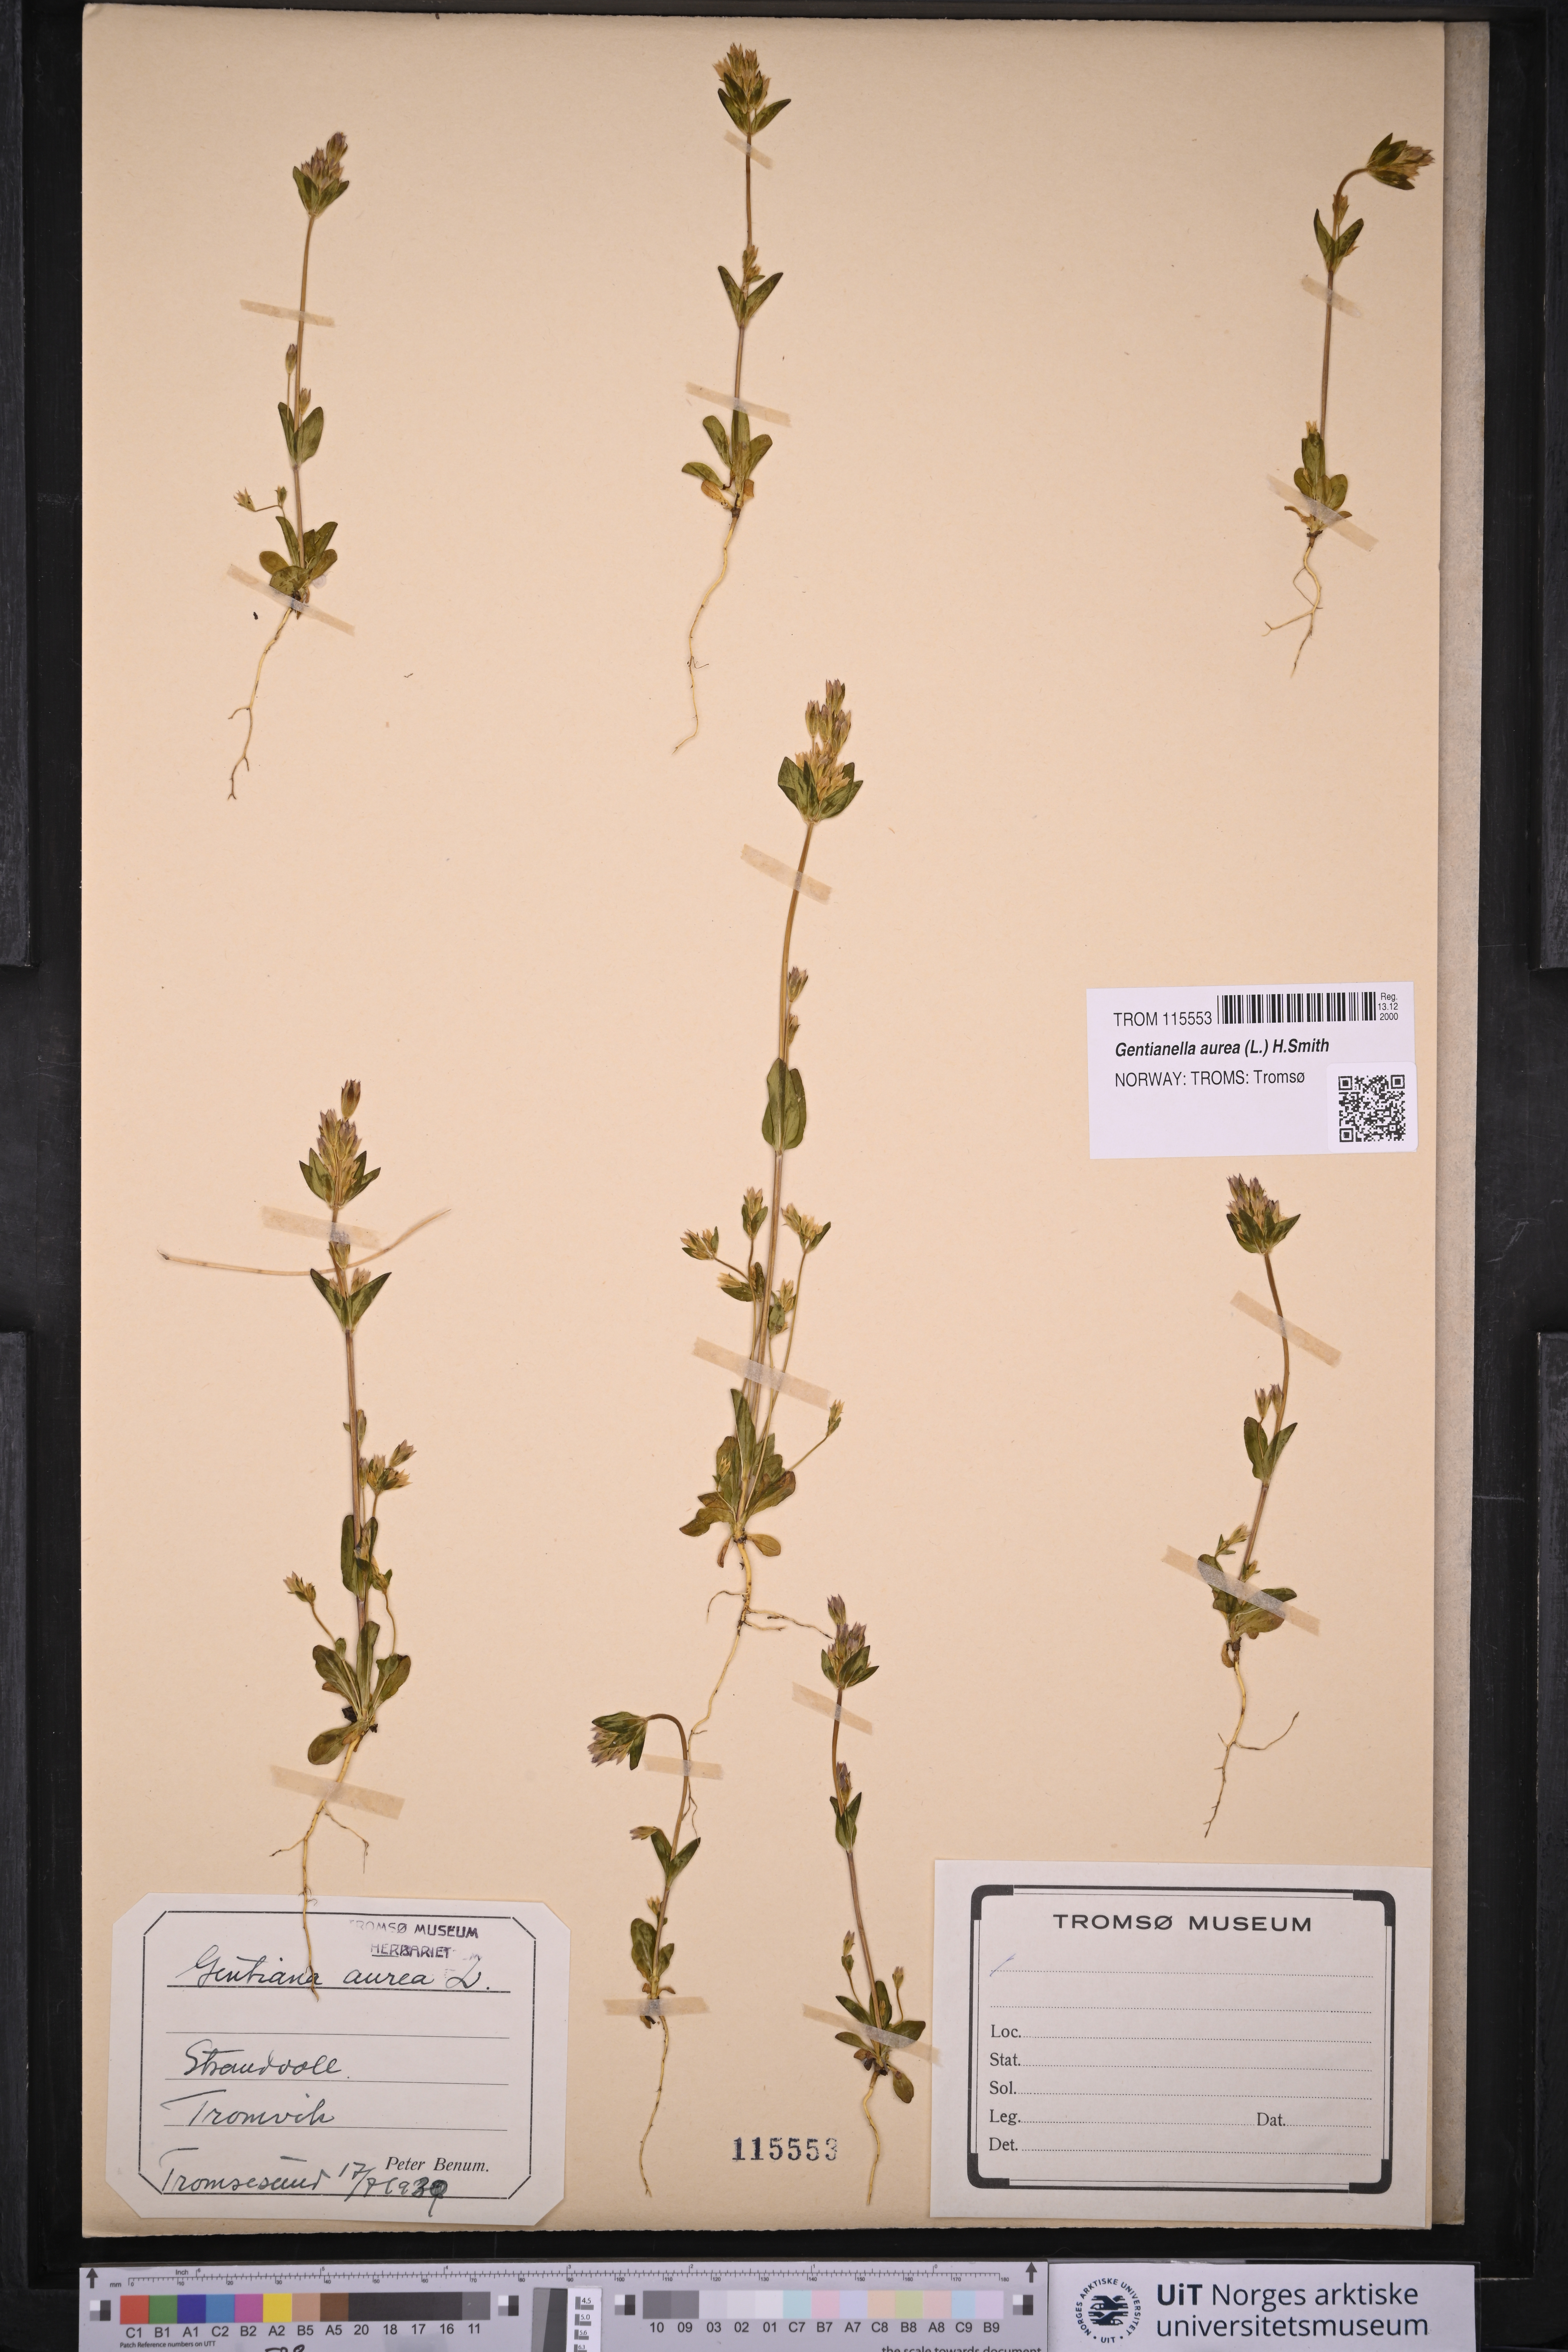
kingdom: Plantae
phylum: Tracheophyta
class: Magnoliopsida
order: Gentianales
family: Gentianaceae
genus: Gentianella
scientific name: Gentianella aurea
